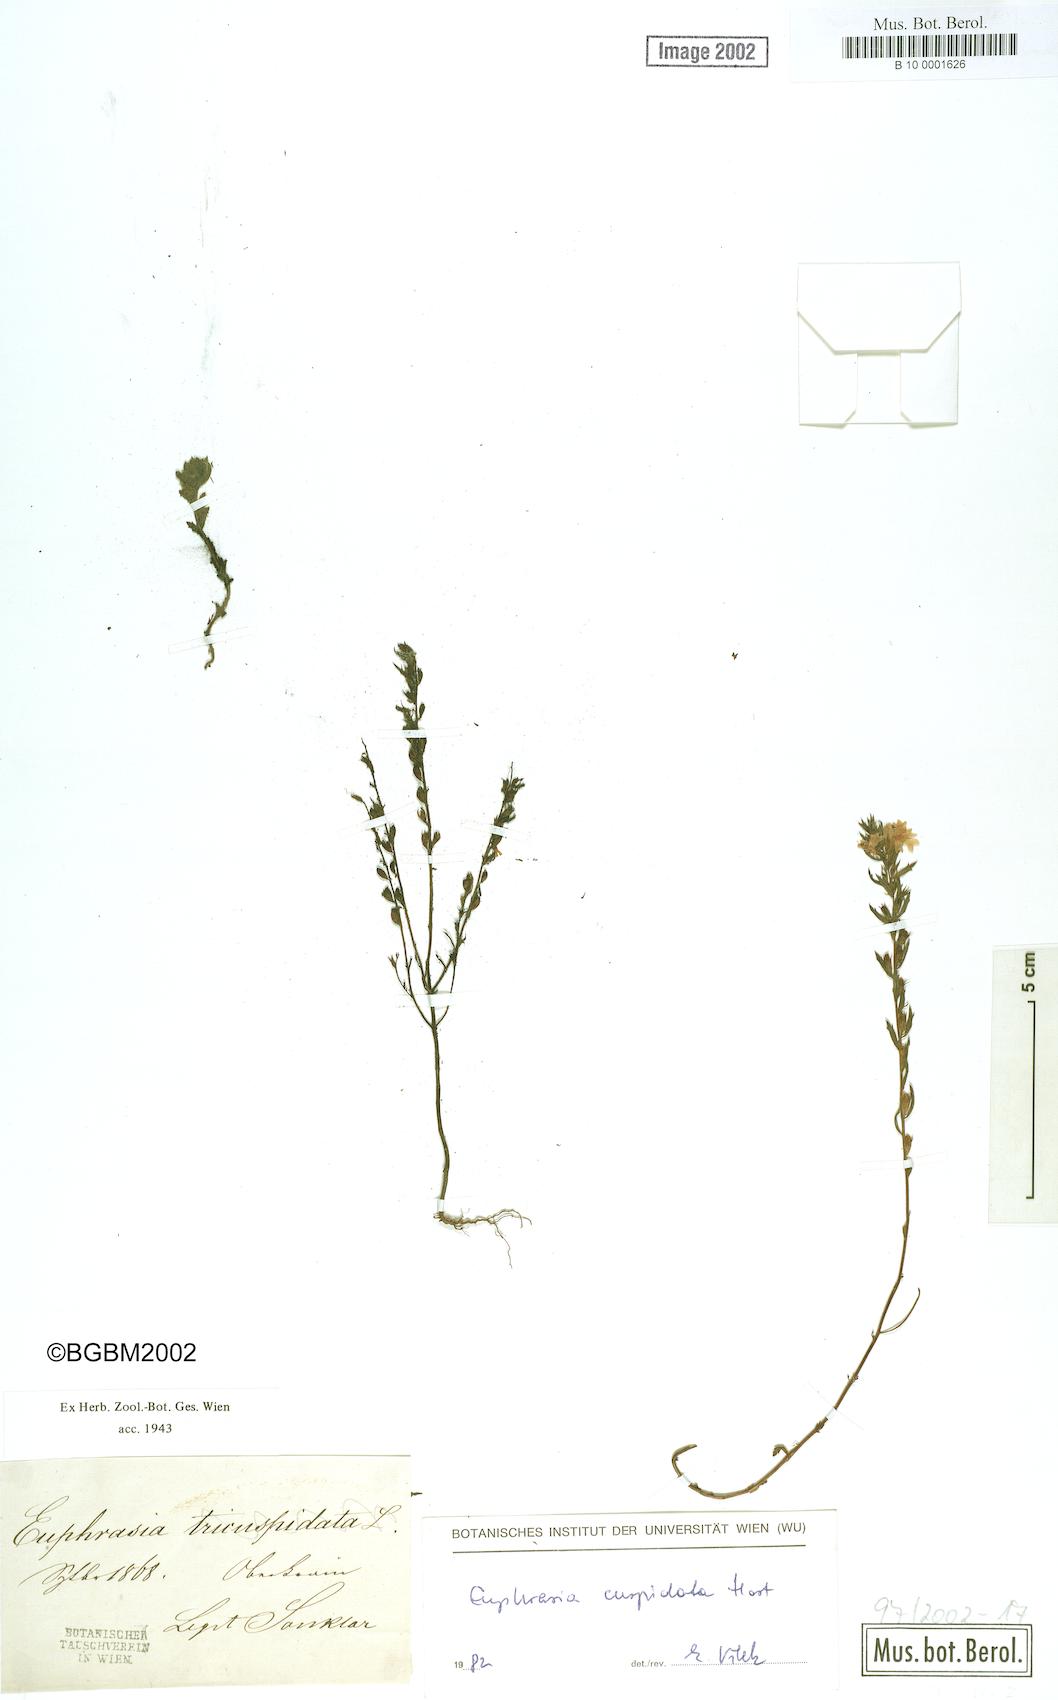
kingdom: Plantae
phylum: Tracheophyta
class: Magnoliopsida
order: Lamiales
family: Orobanchaceae
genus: Euphrasia
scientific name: Euphrasia cuspidata
